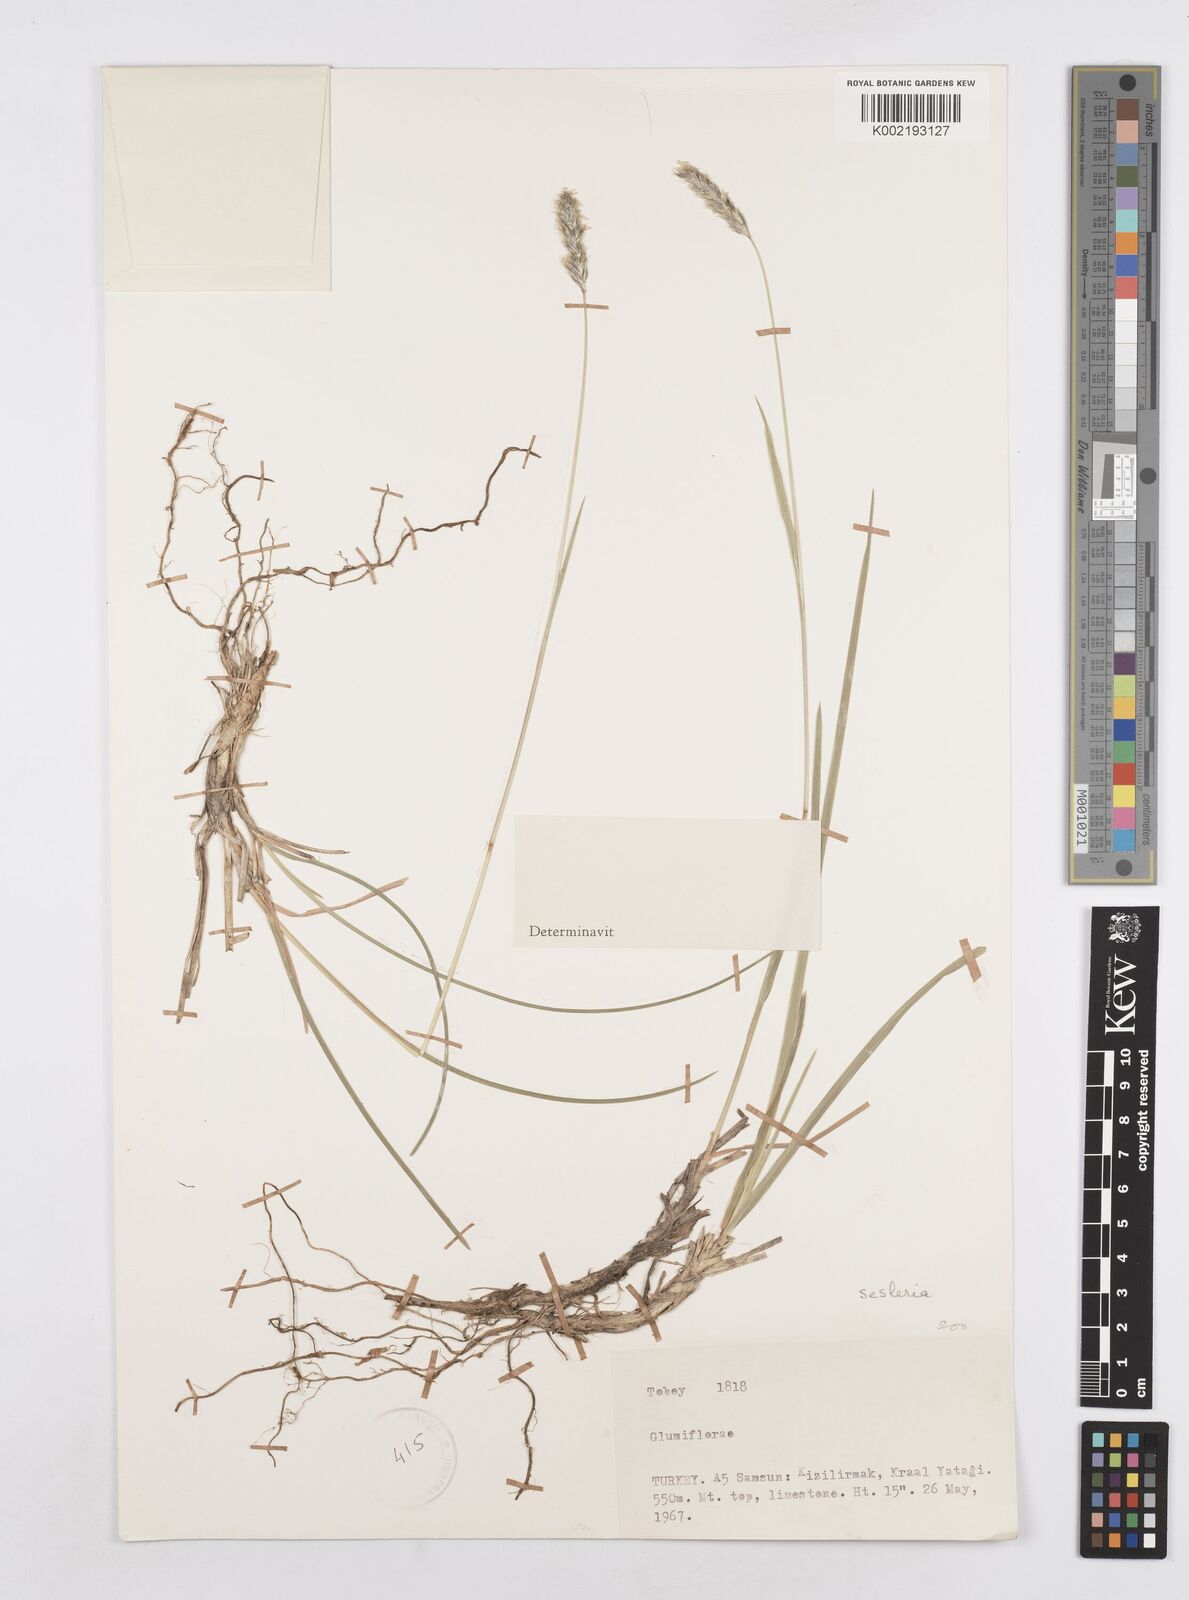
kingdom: Plantae
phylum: Tracheophyta
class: Liliopsida
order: Poales
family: Poaceae
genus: Sesleria
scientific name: Sesleria argentea
